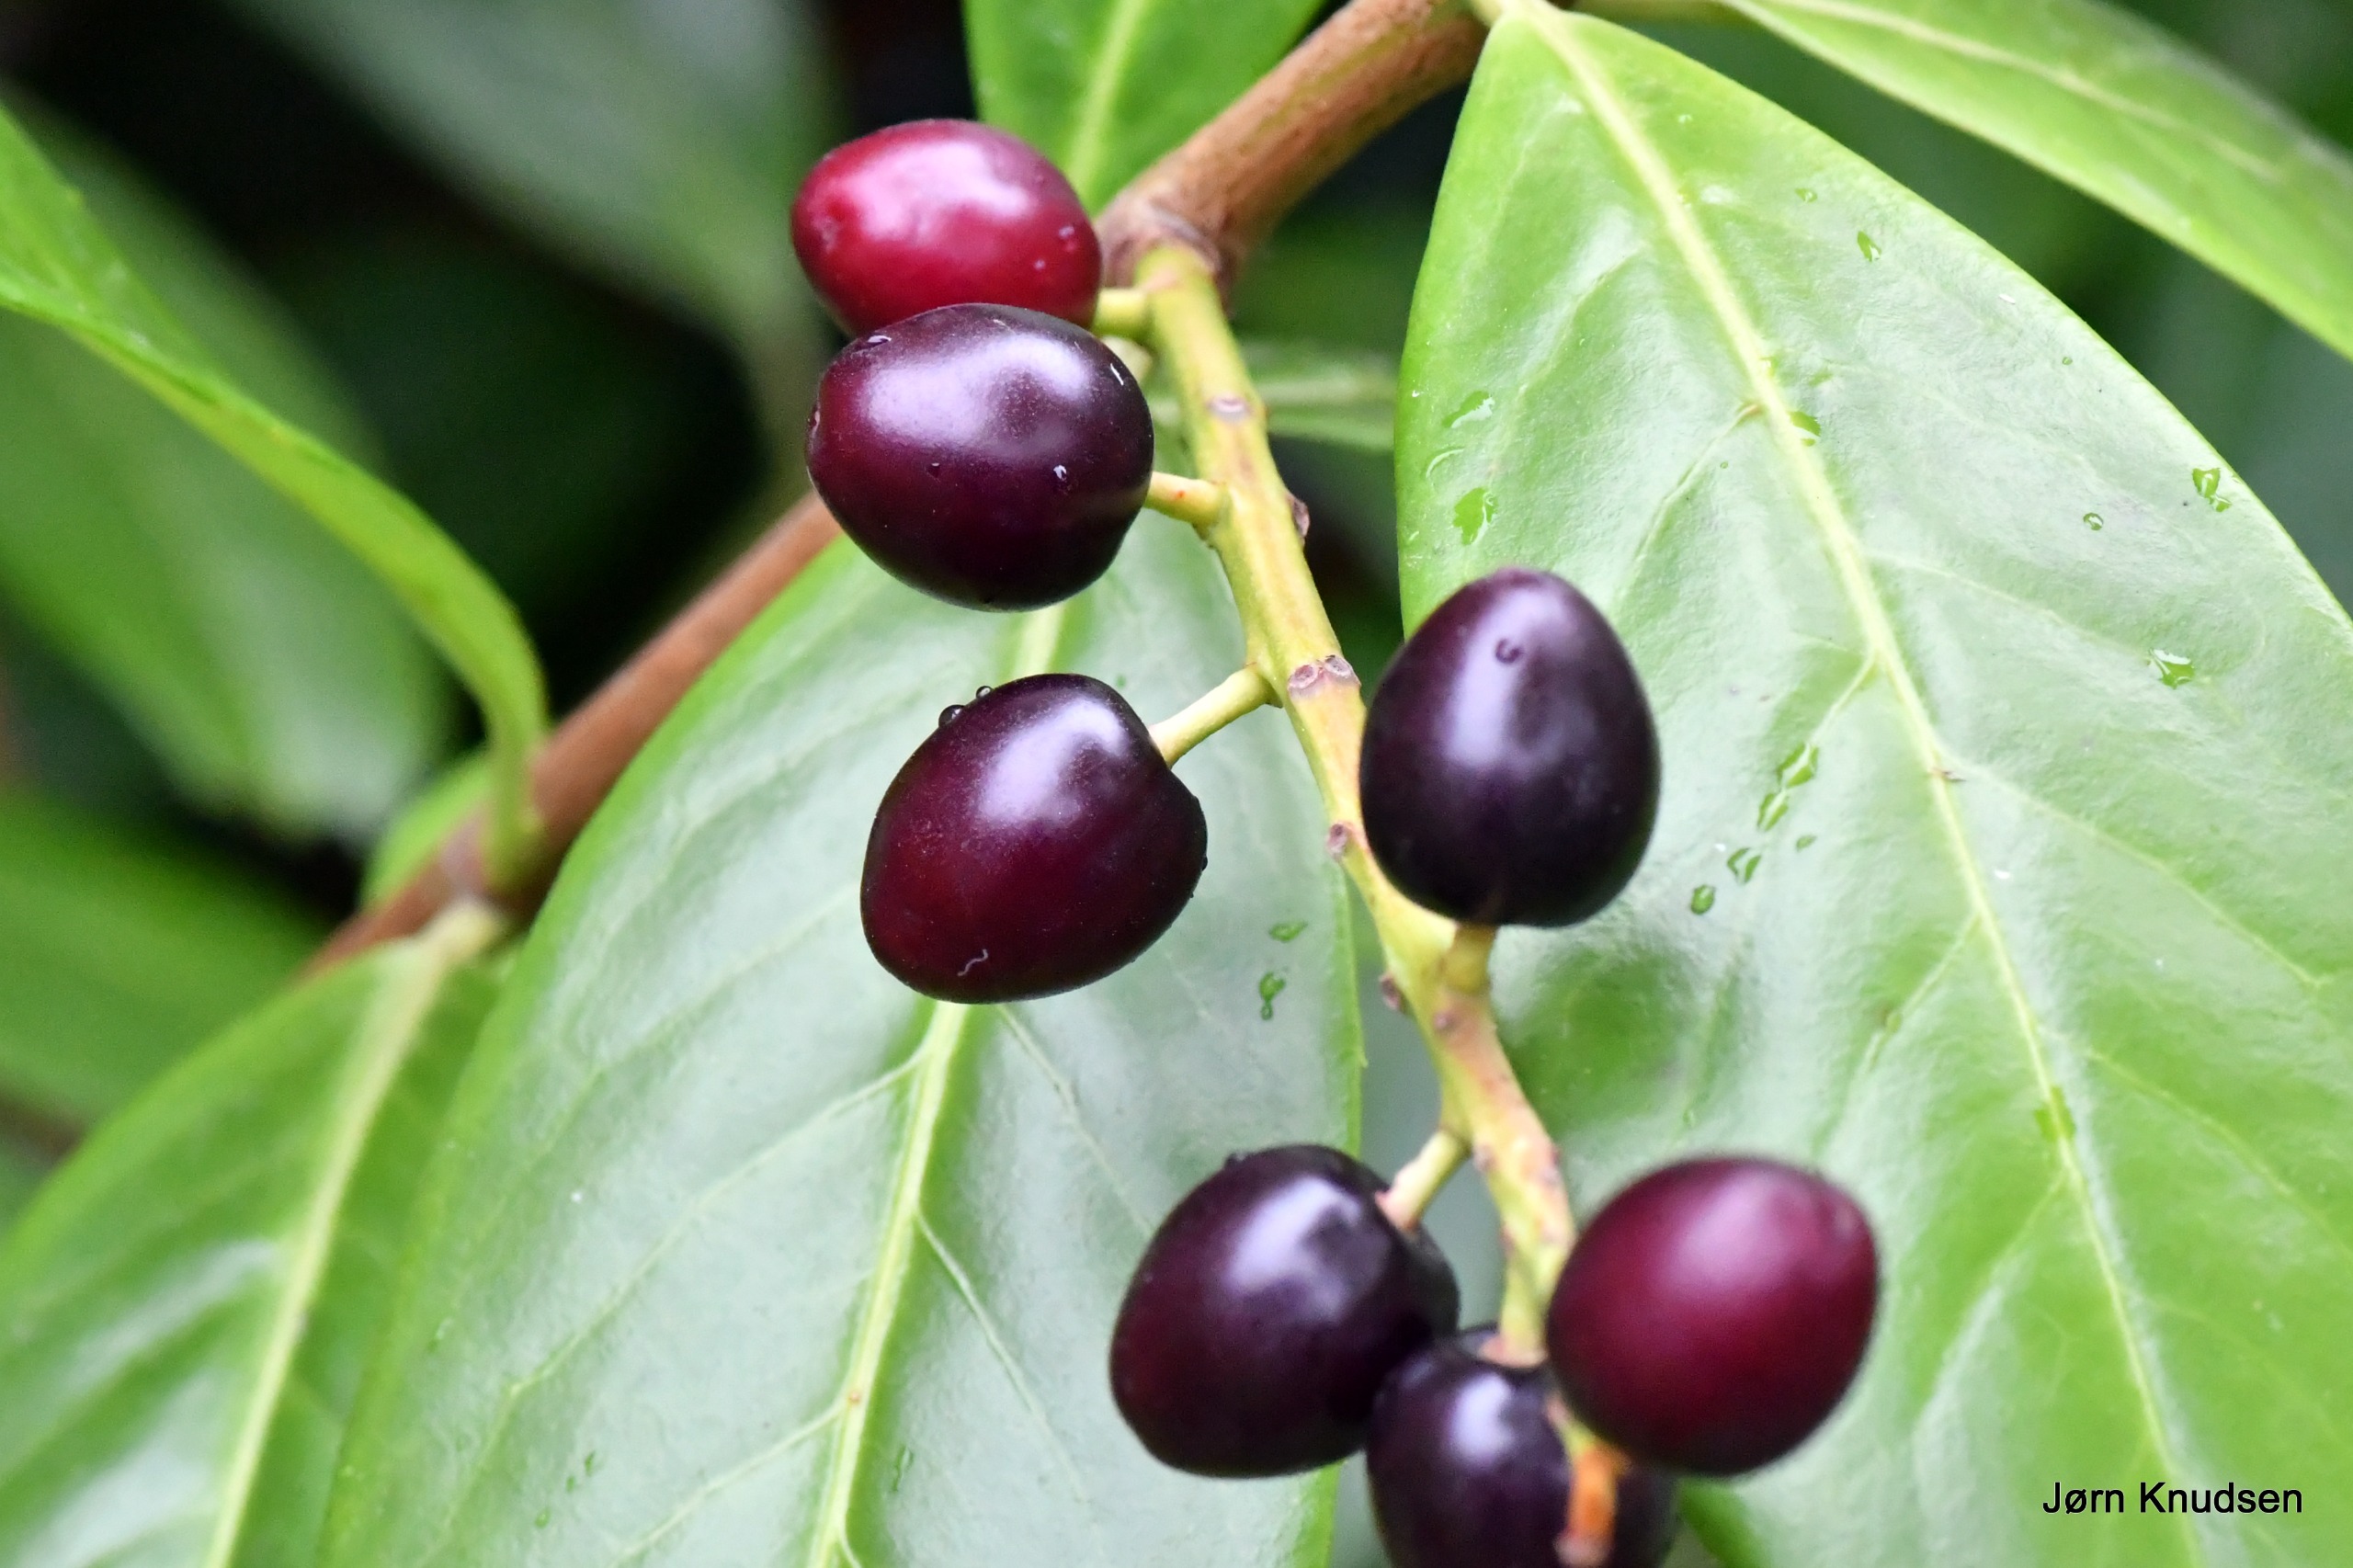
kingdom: Plantae
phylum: Tracheophyta
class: Magnoliopsida
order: Rosales
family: Rosaceae
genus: Prunus
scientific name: Prunus laurocerasus
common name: Laurbærkirsebær
